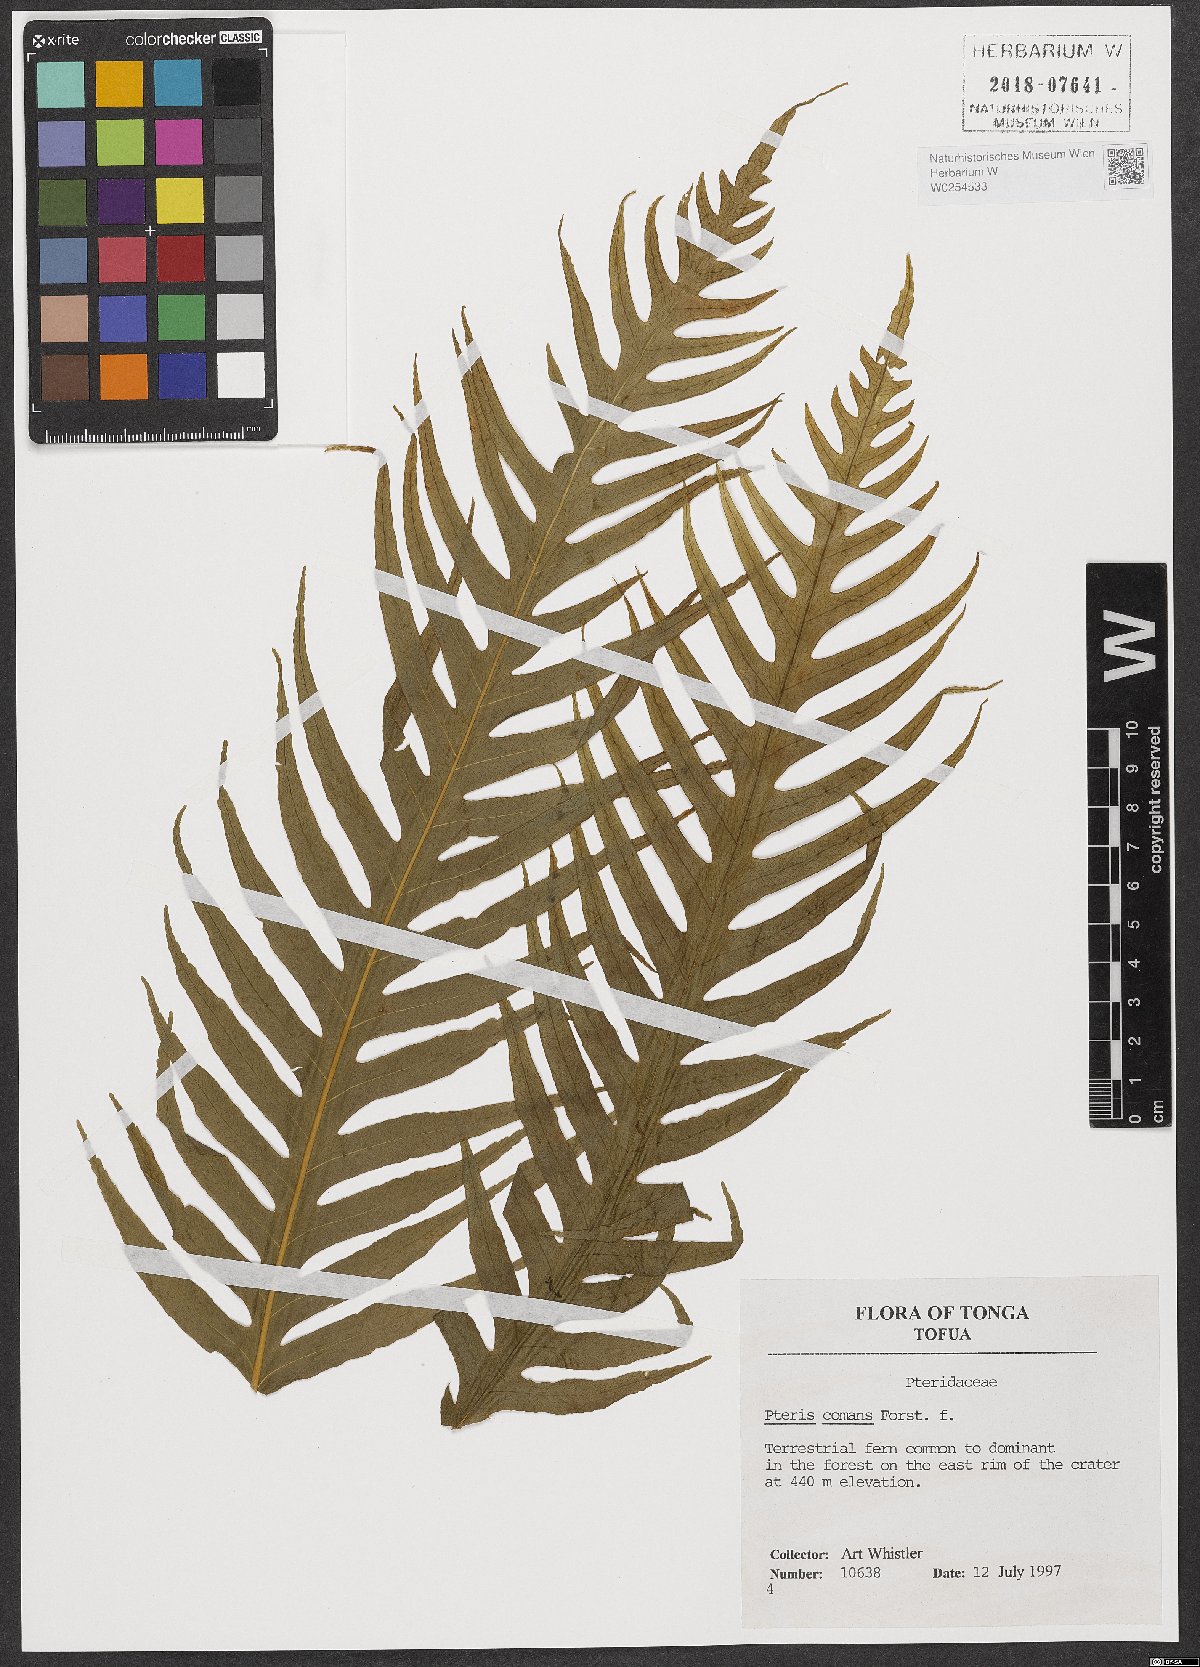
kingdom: Plantae
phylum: Tracheophyta
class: Polypodiopsida
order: Polypodiales
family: Pteridaceae
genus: Pteris
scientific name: Pteris comans
